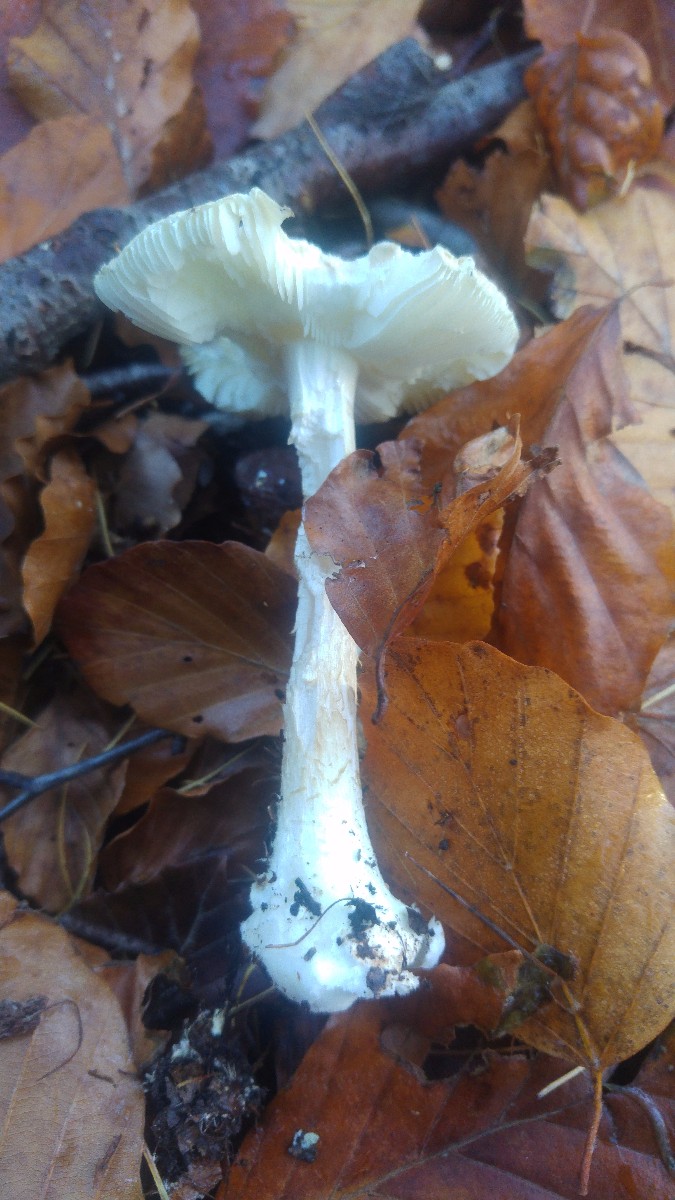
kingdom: Fungi
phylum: Basidiomycota
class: Agaricomycetes
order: Agaricales
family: Amanitaceae
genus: Amanita
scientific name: Amanita citrina
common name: kugleknoldet fluesvamp
